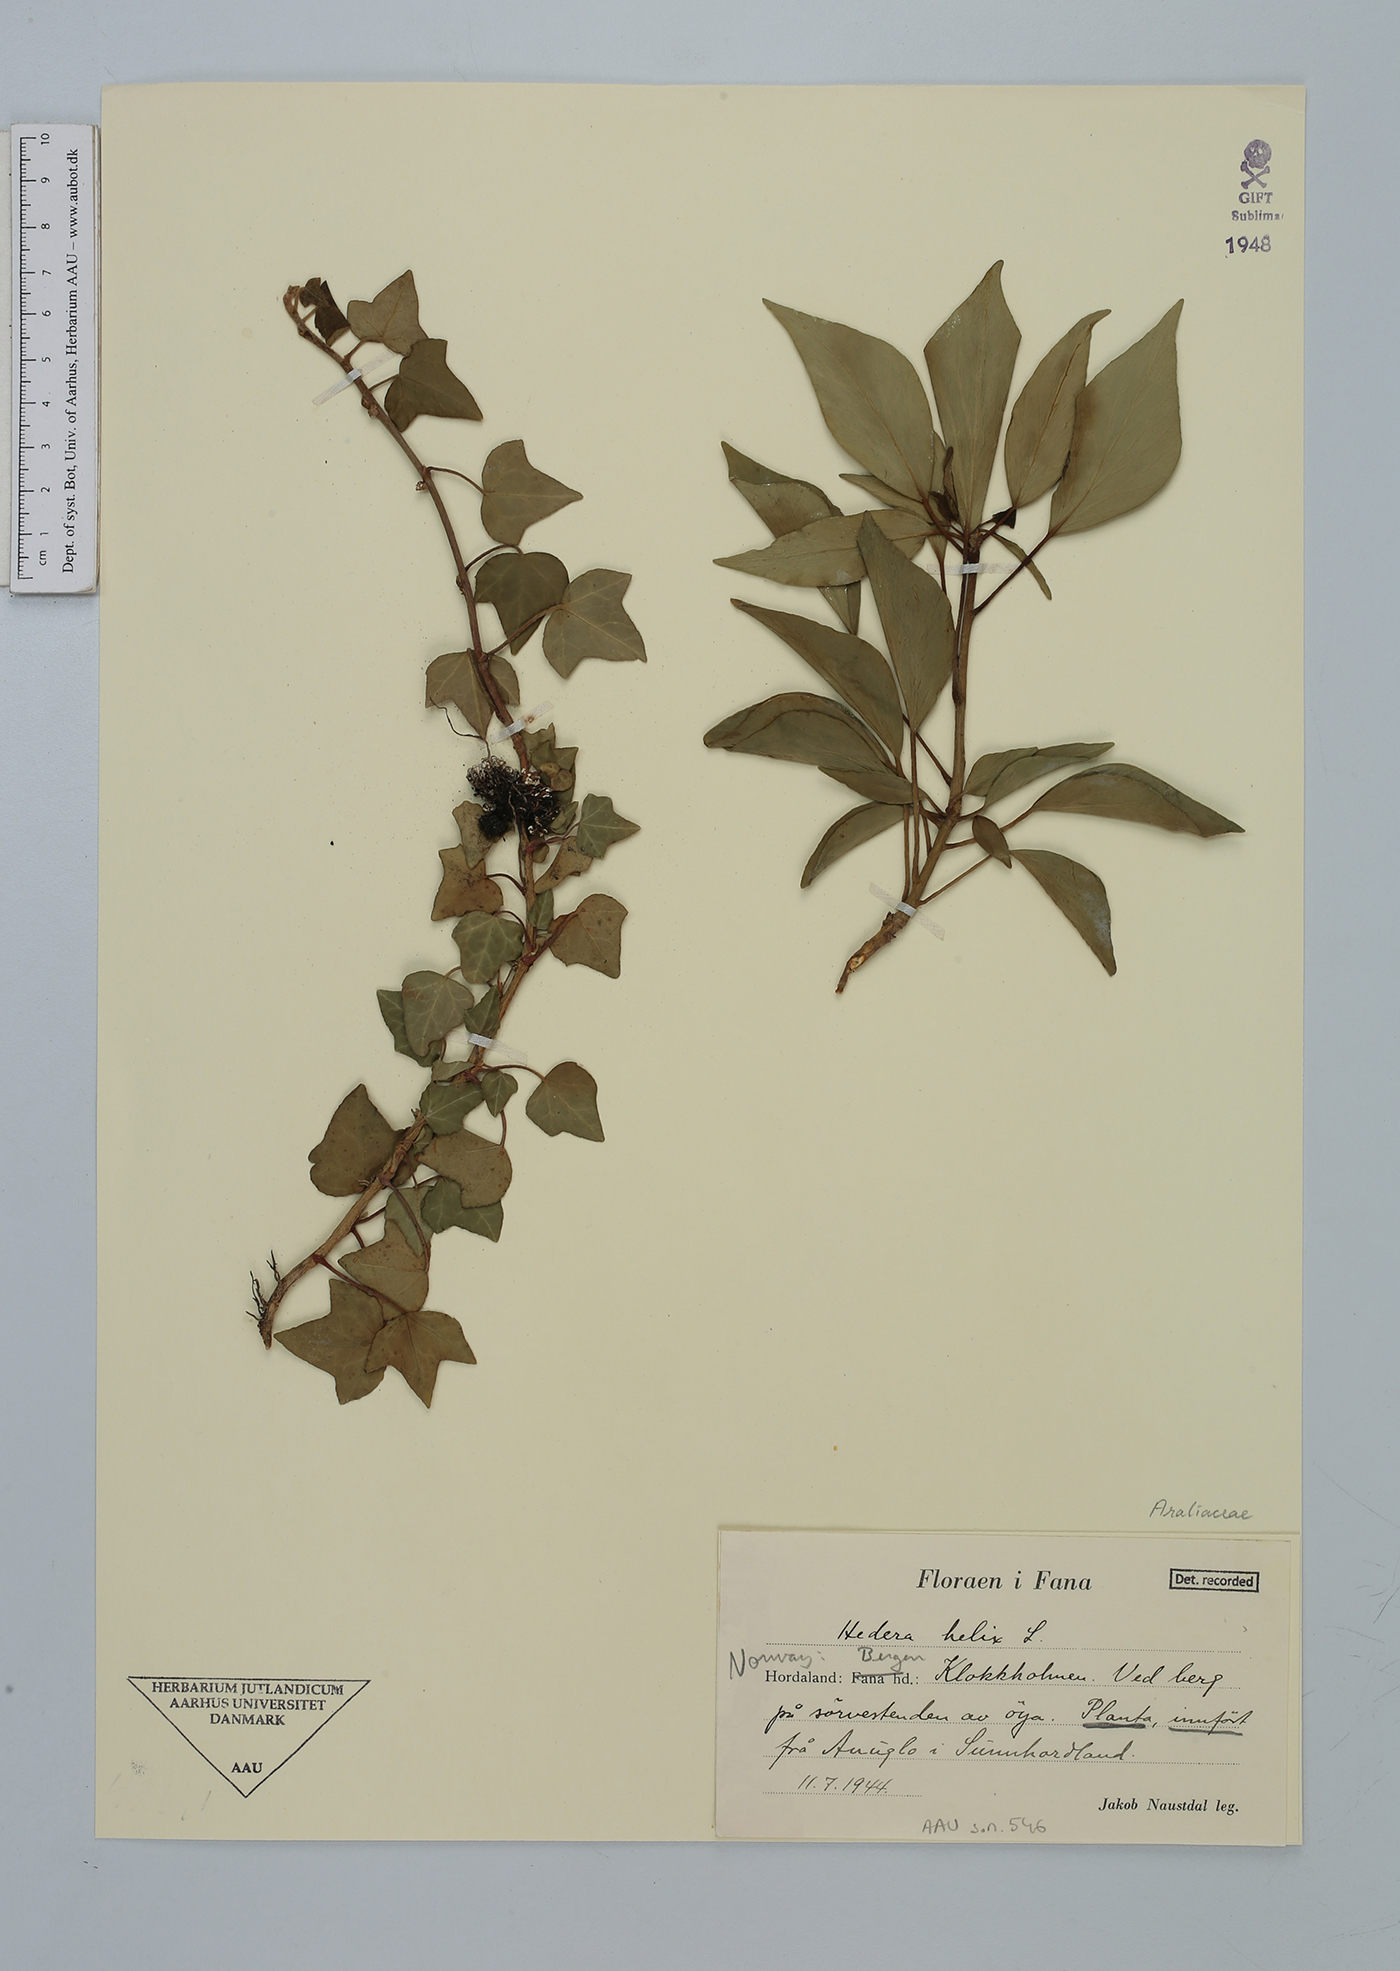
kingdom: Plantae
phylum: Tracheophyta
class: Magnoliopsida
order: Apiales
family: Araliaceae
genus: Hedera
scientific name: Hedera helix
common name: Ivy
